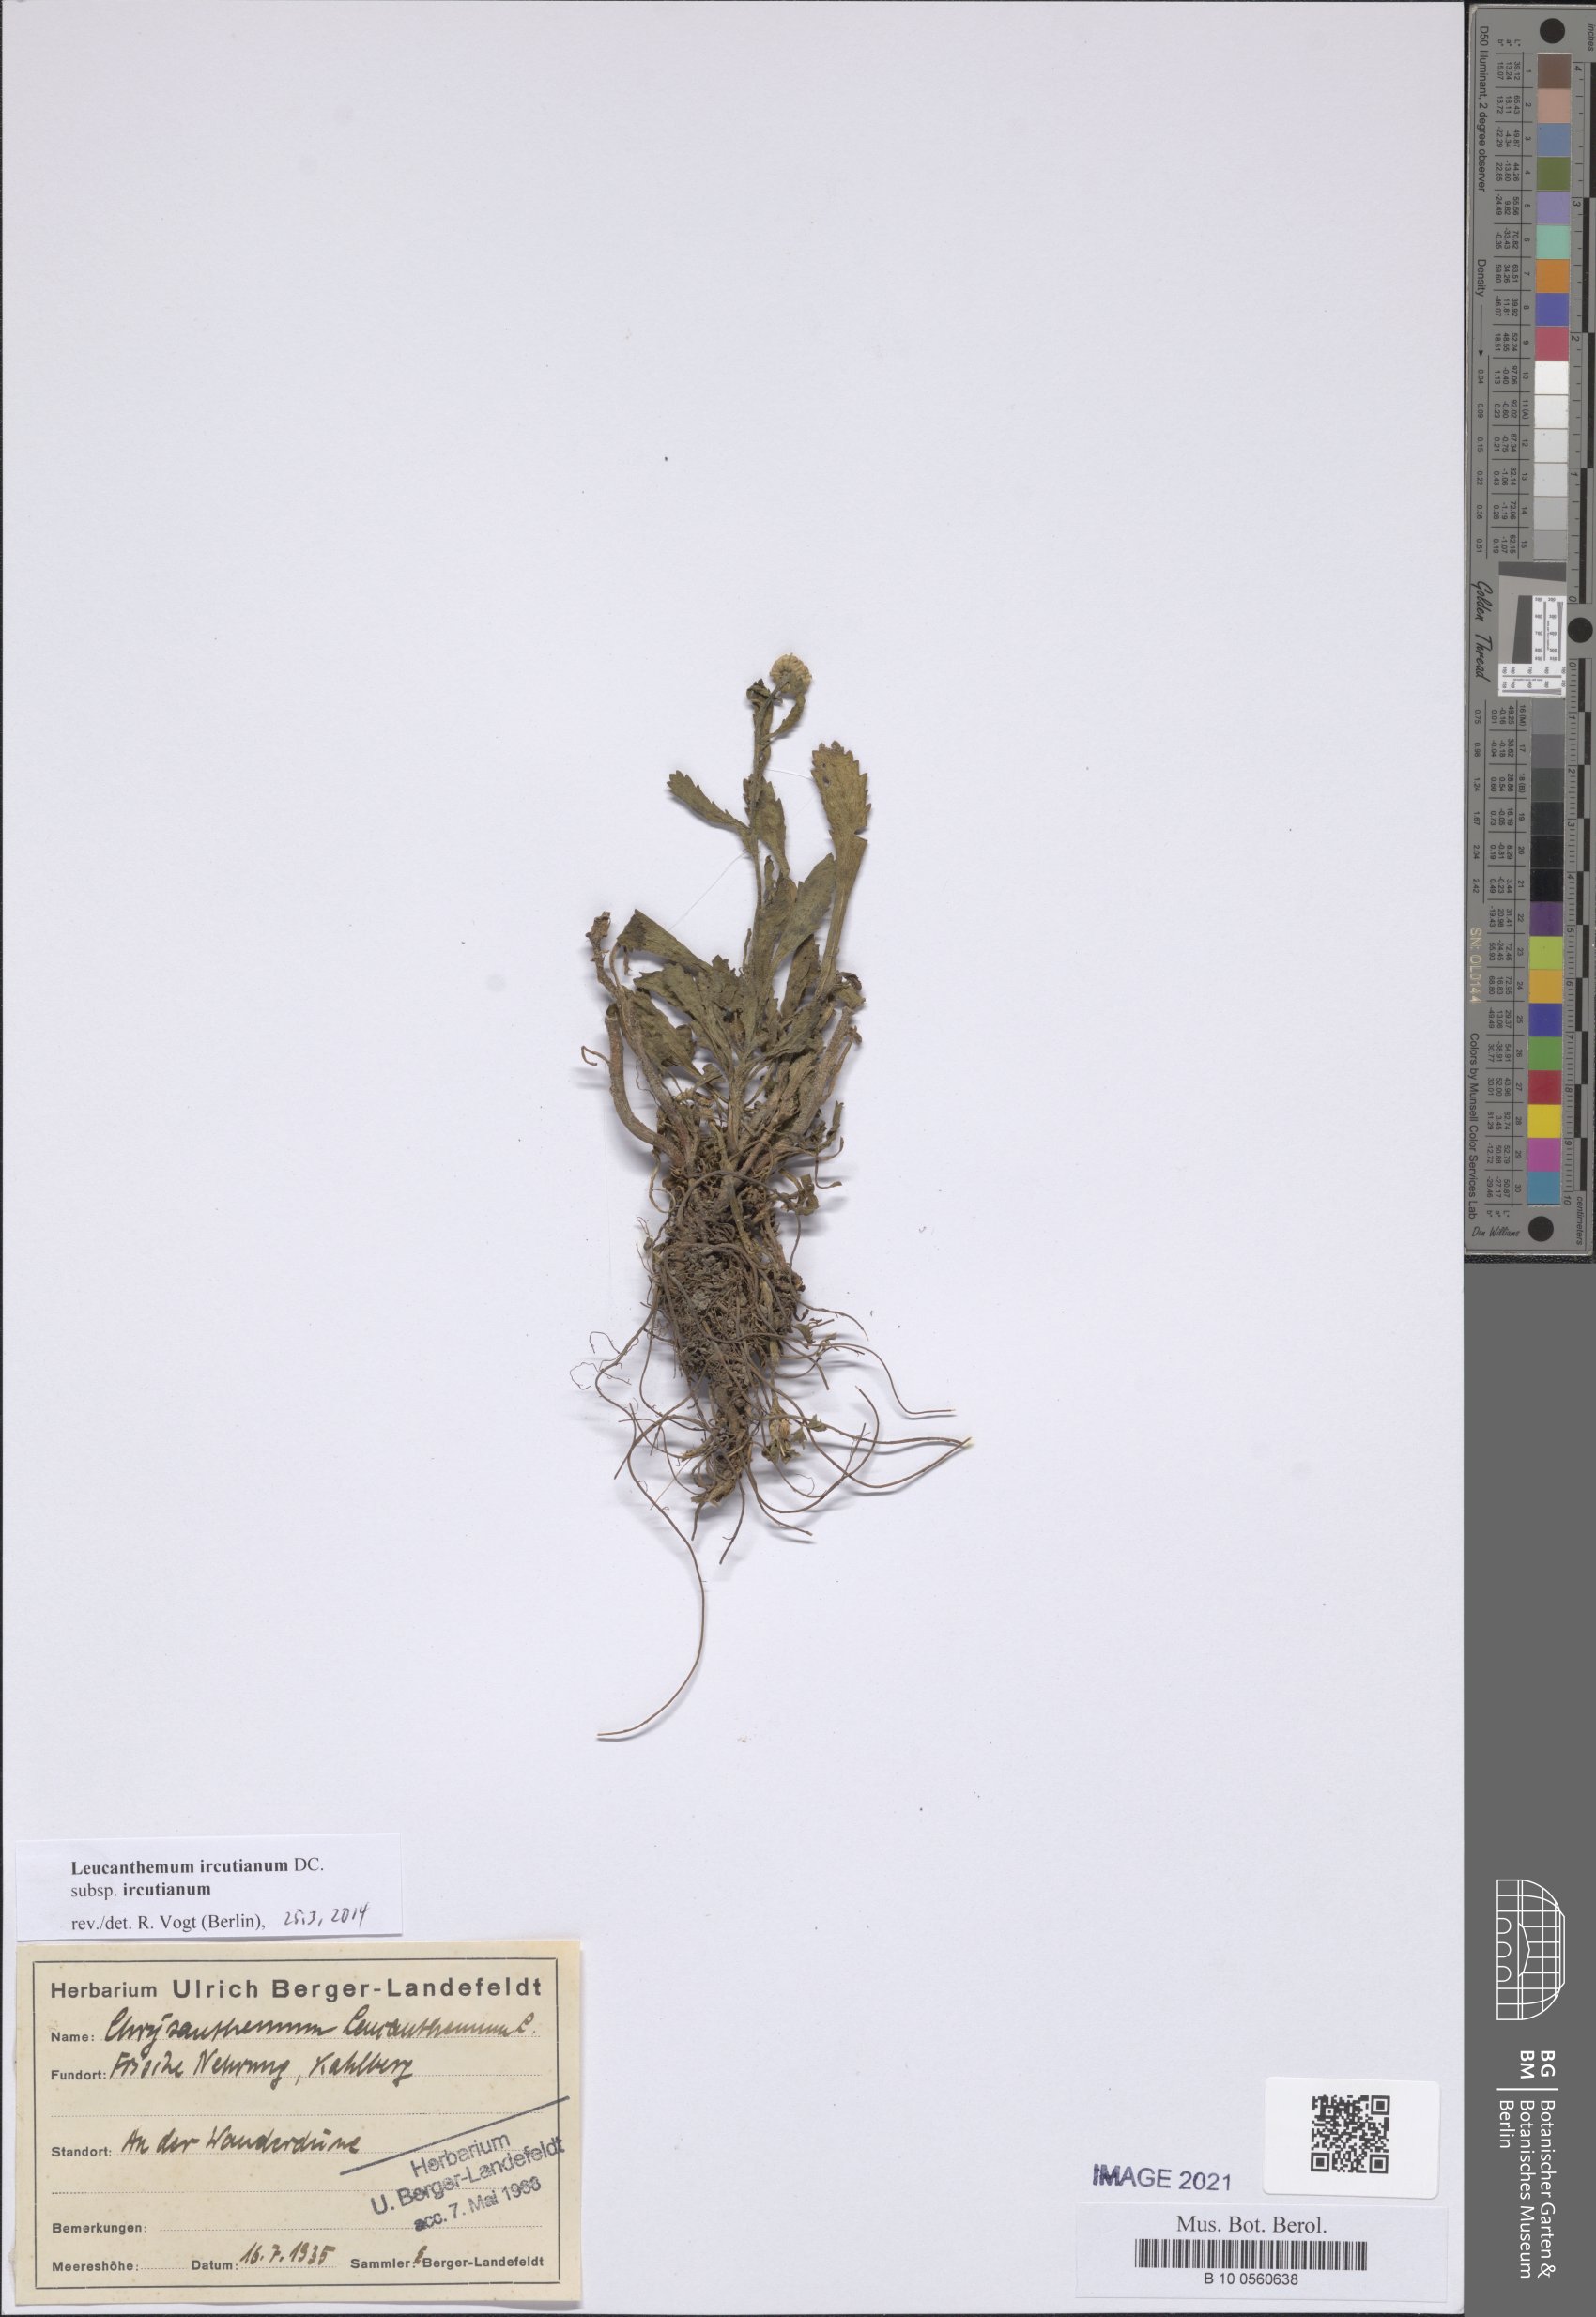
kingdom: Plantae
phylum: Tracheophyta
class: Magnoliopsida
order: Asterales
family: Asteraceae
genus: Leucanthemum
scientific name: Leucanthemum ircutianum
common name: Daisy
